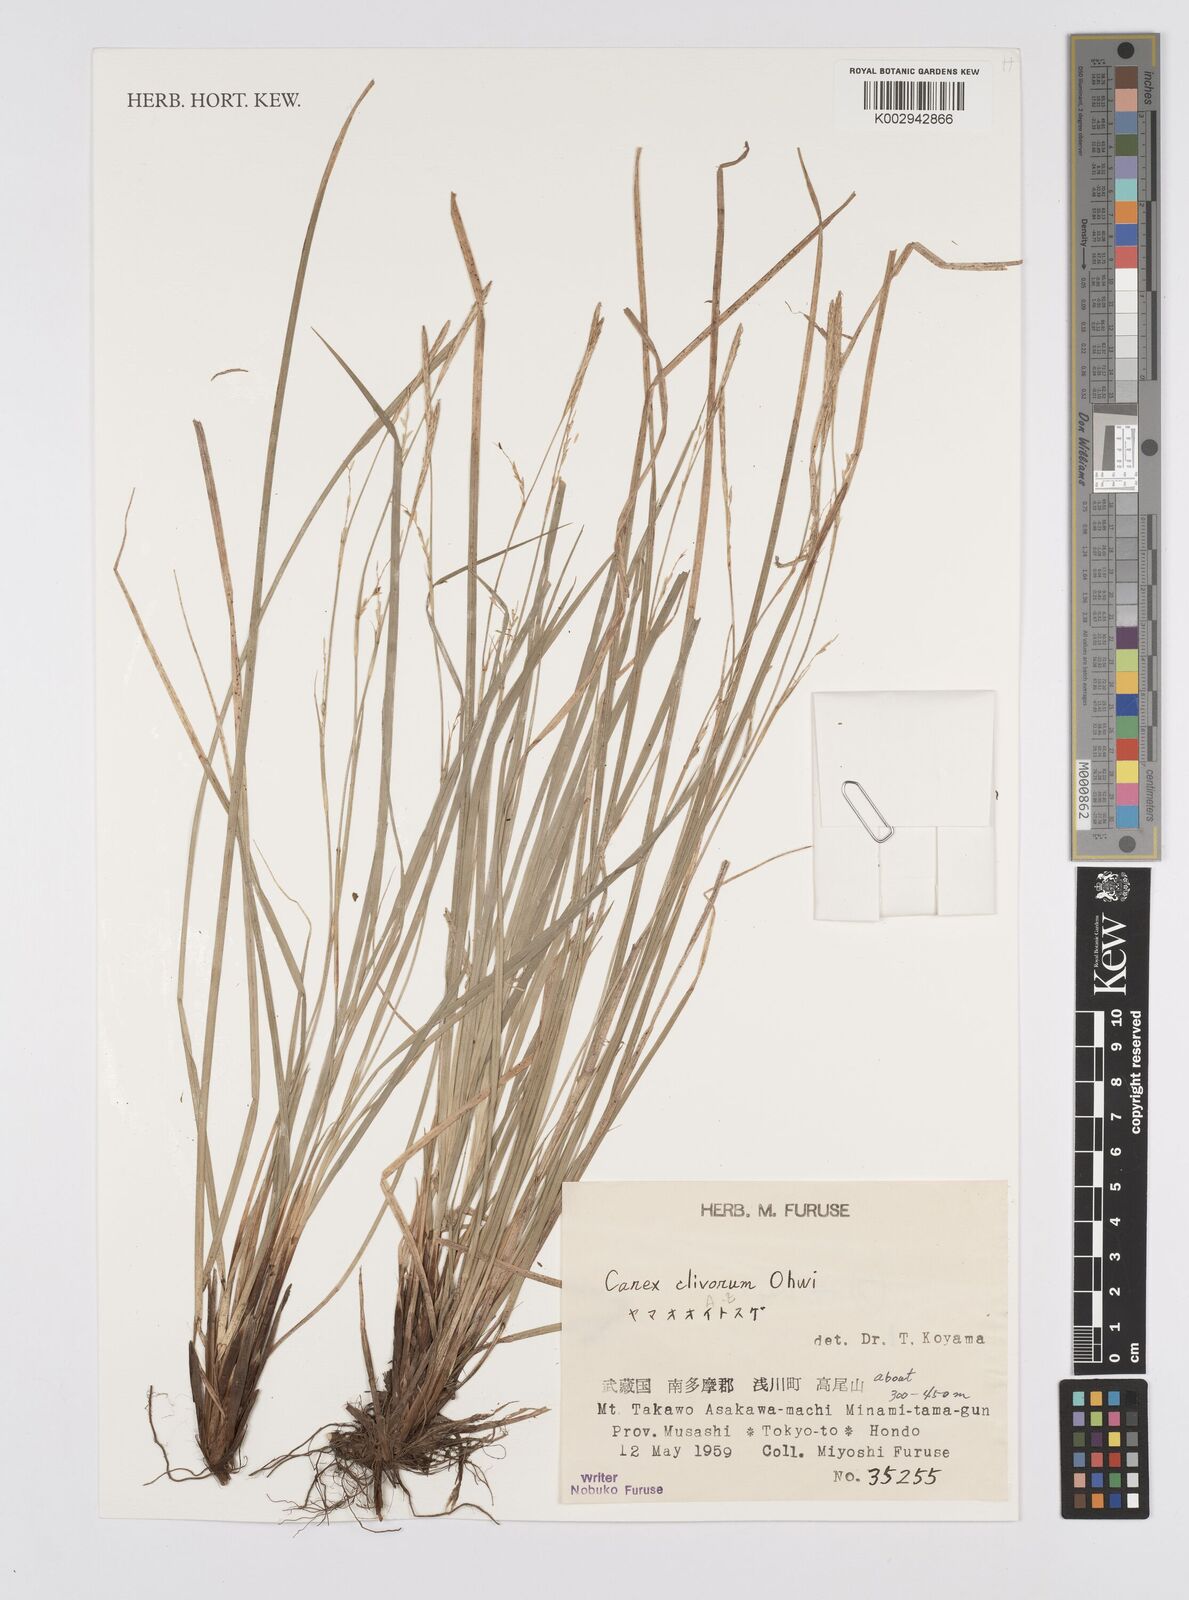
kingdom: Plantae
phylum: Tracheophyta
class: Liliopsida
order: Poales
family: Cyperaceae
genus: Carex
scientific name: Carex clivorum
